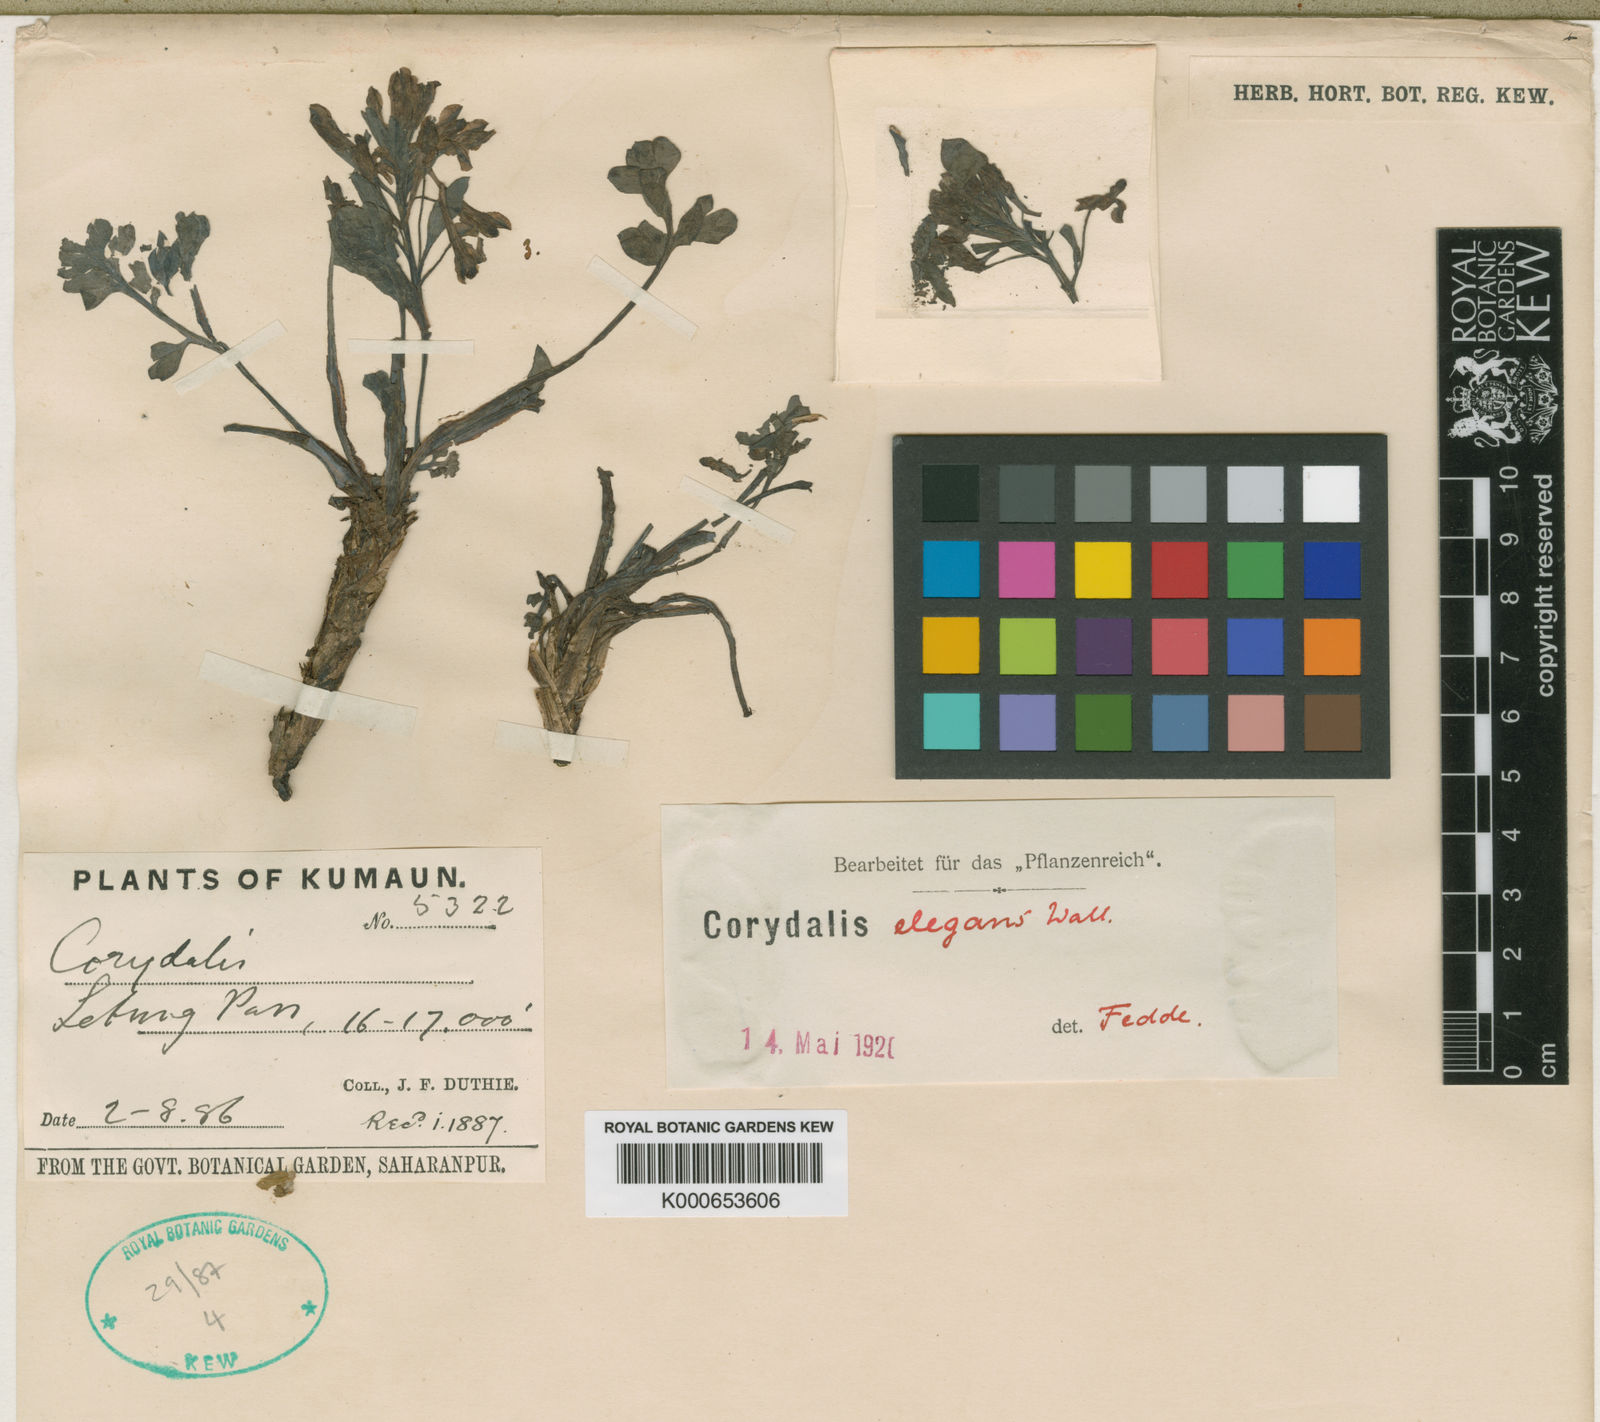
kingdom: Plantae
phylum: Tracheophyta
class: Magnoliopsida
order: Ranunculales
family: Papaveraceae
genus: Corydalis
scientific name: Corydalis elegans
